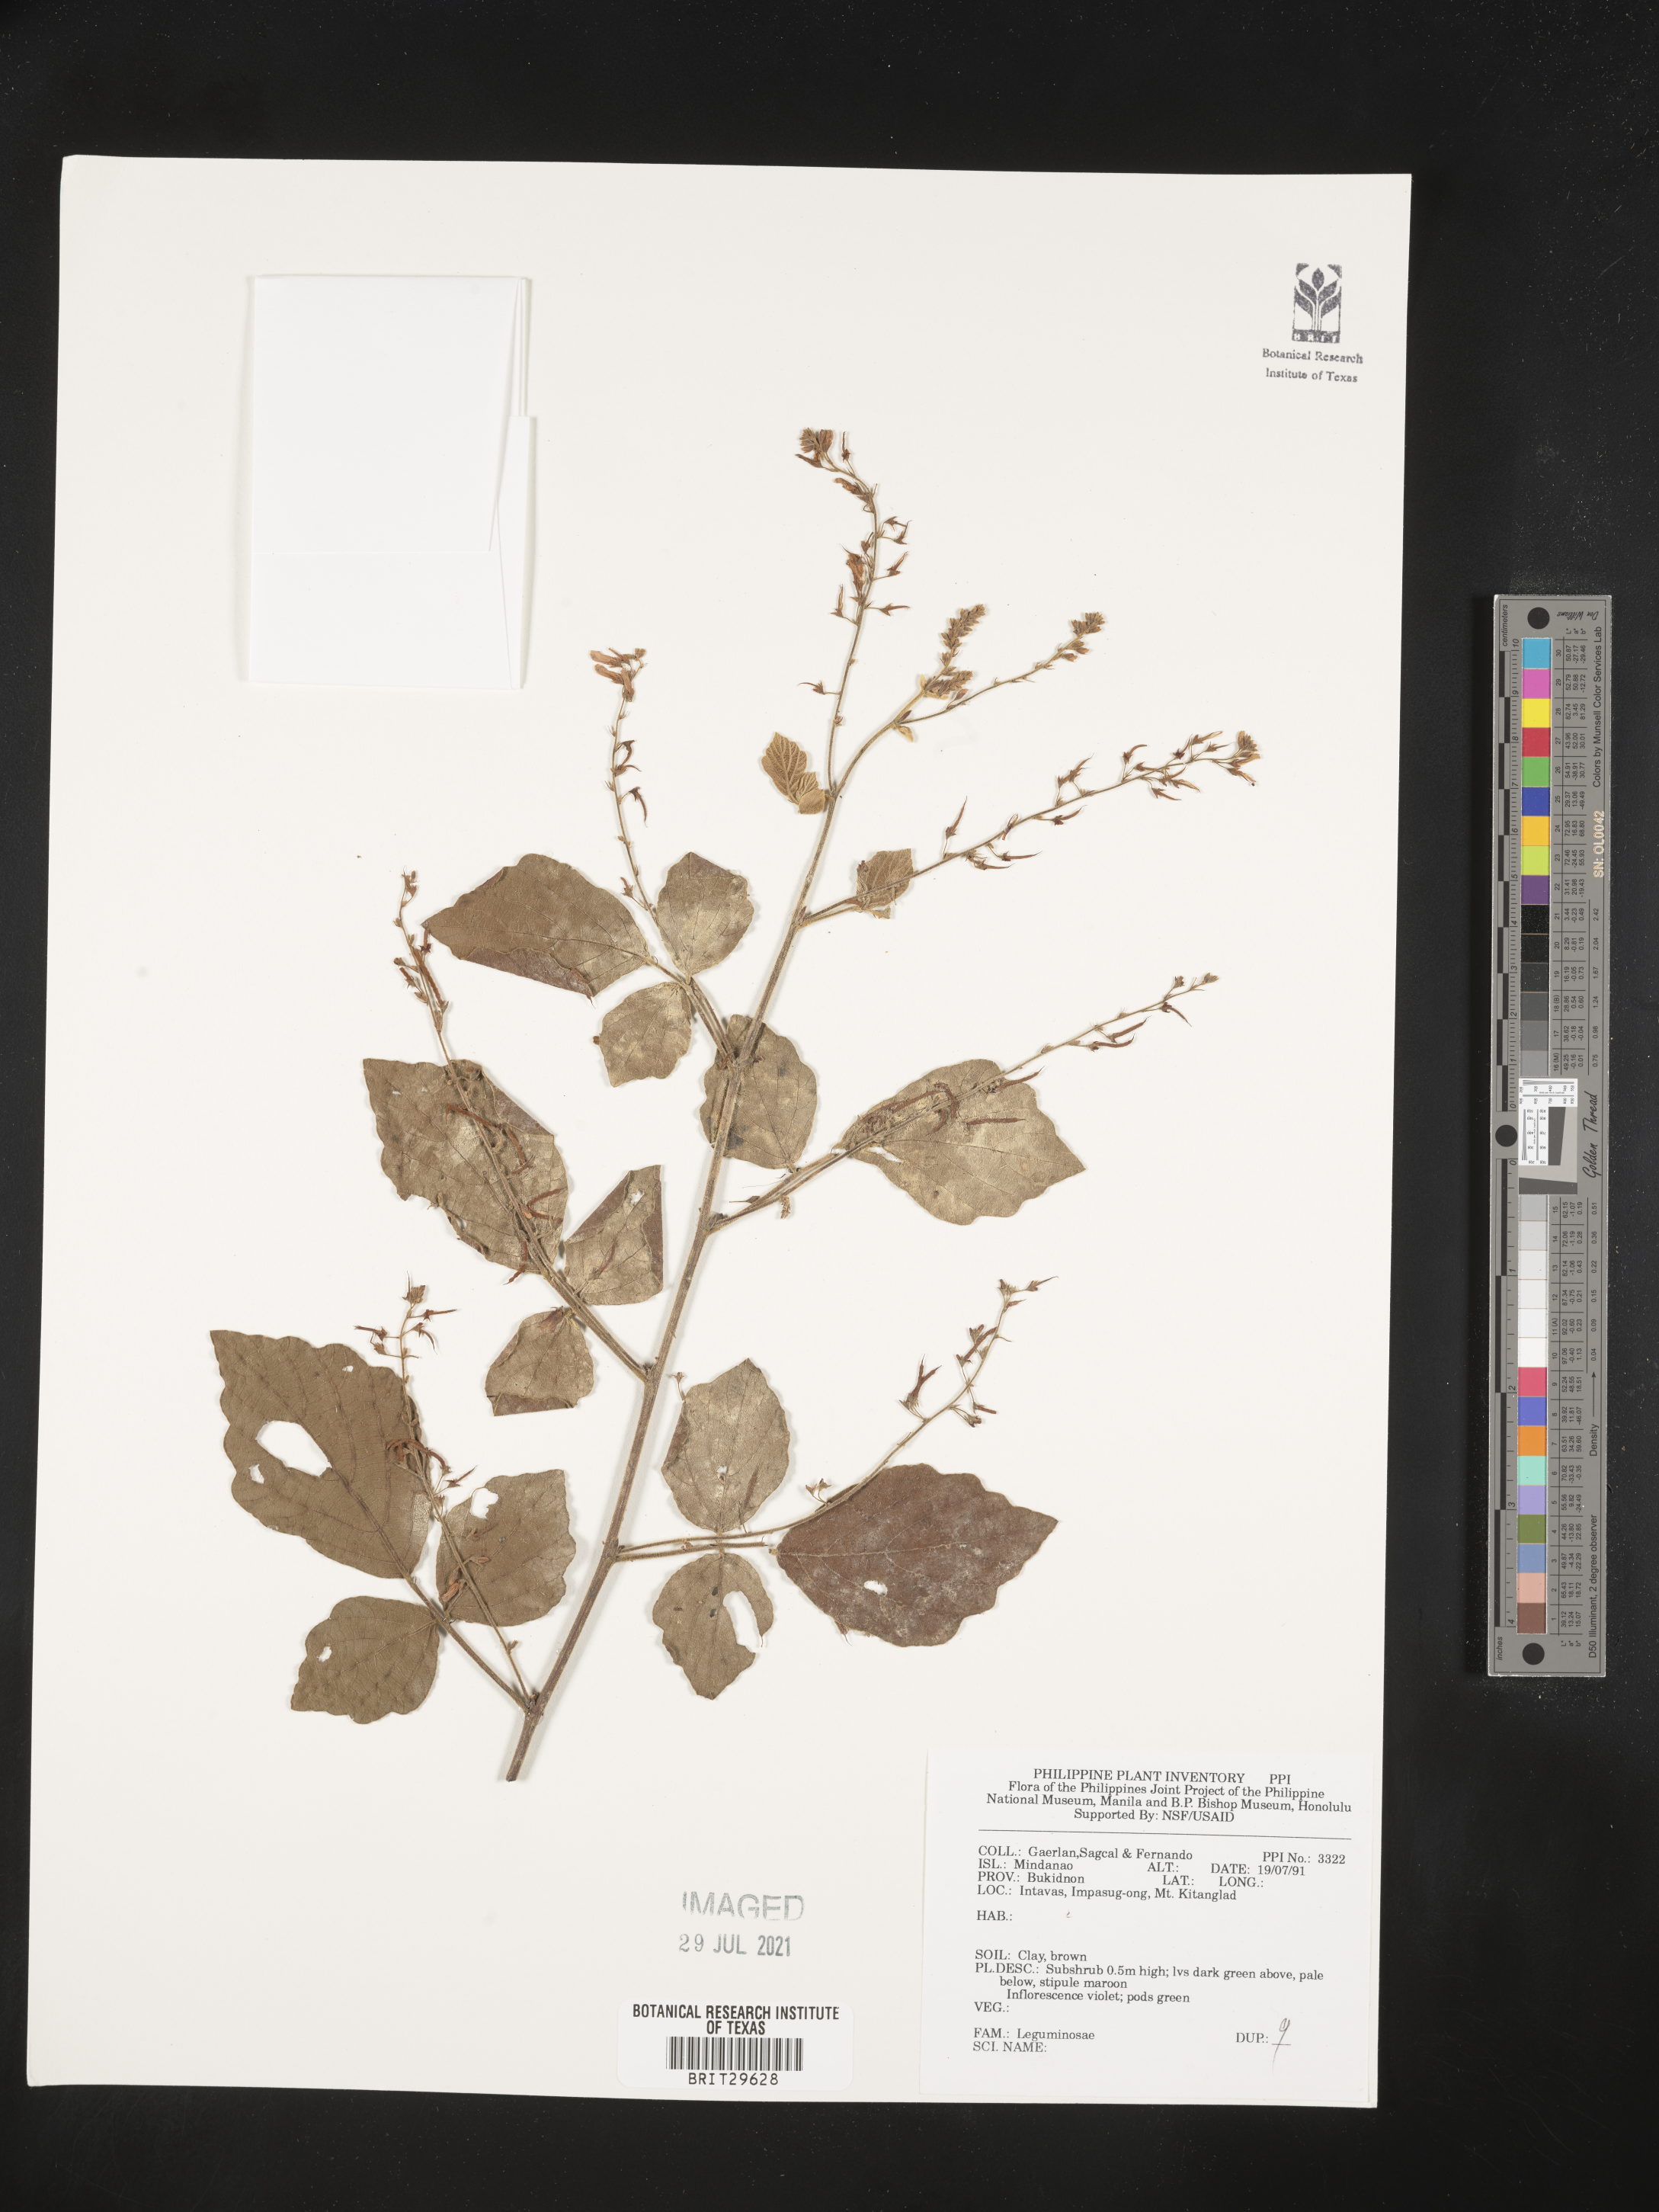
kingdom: Plantae
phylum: Tracheophyta
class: Magnoliopsida
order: Fabales
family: Fabaceae
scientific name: Fabaceae
